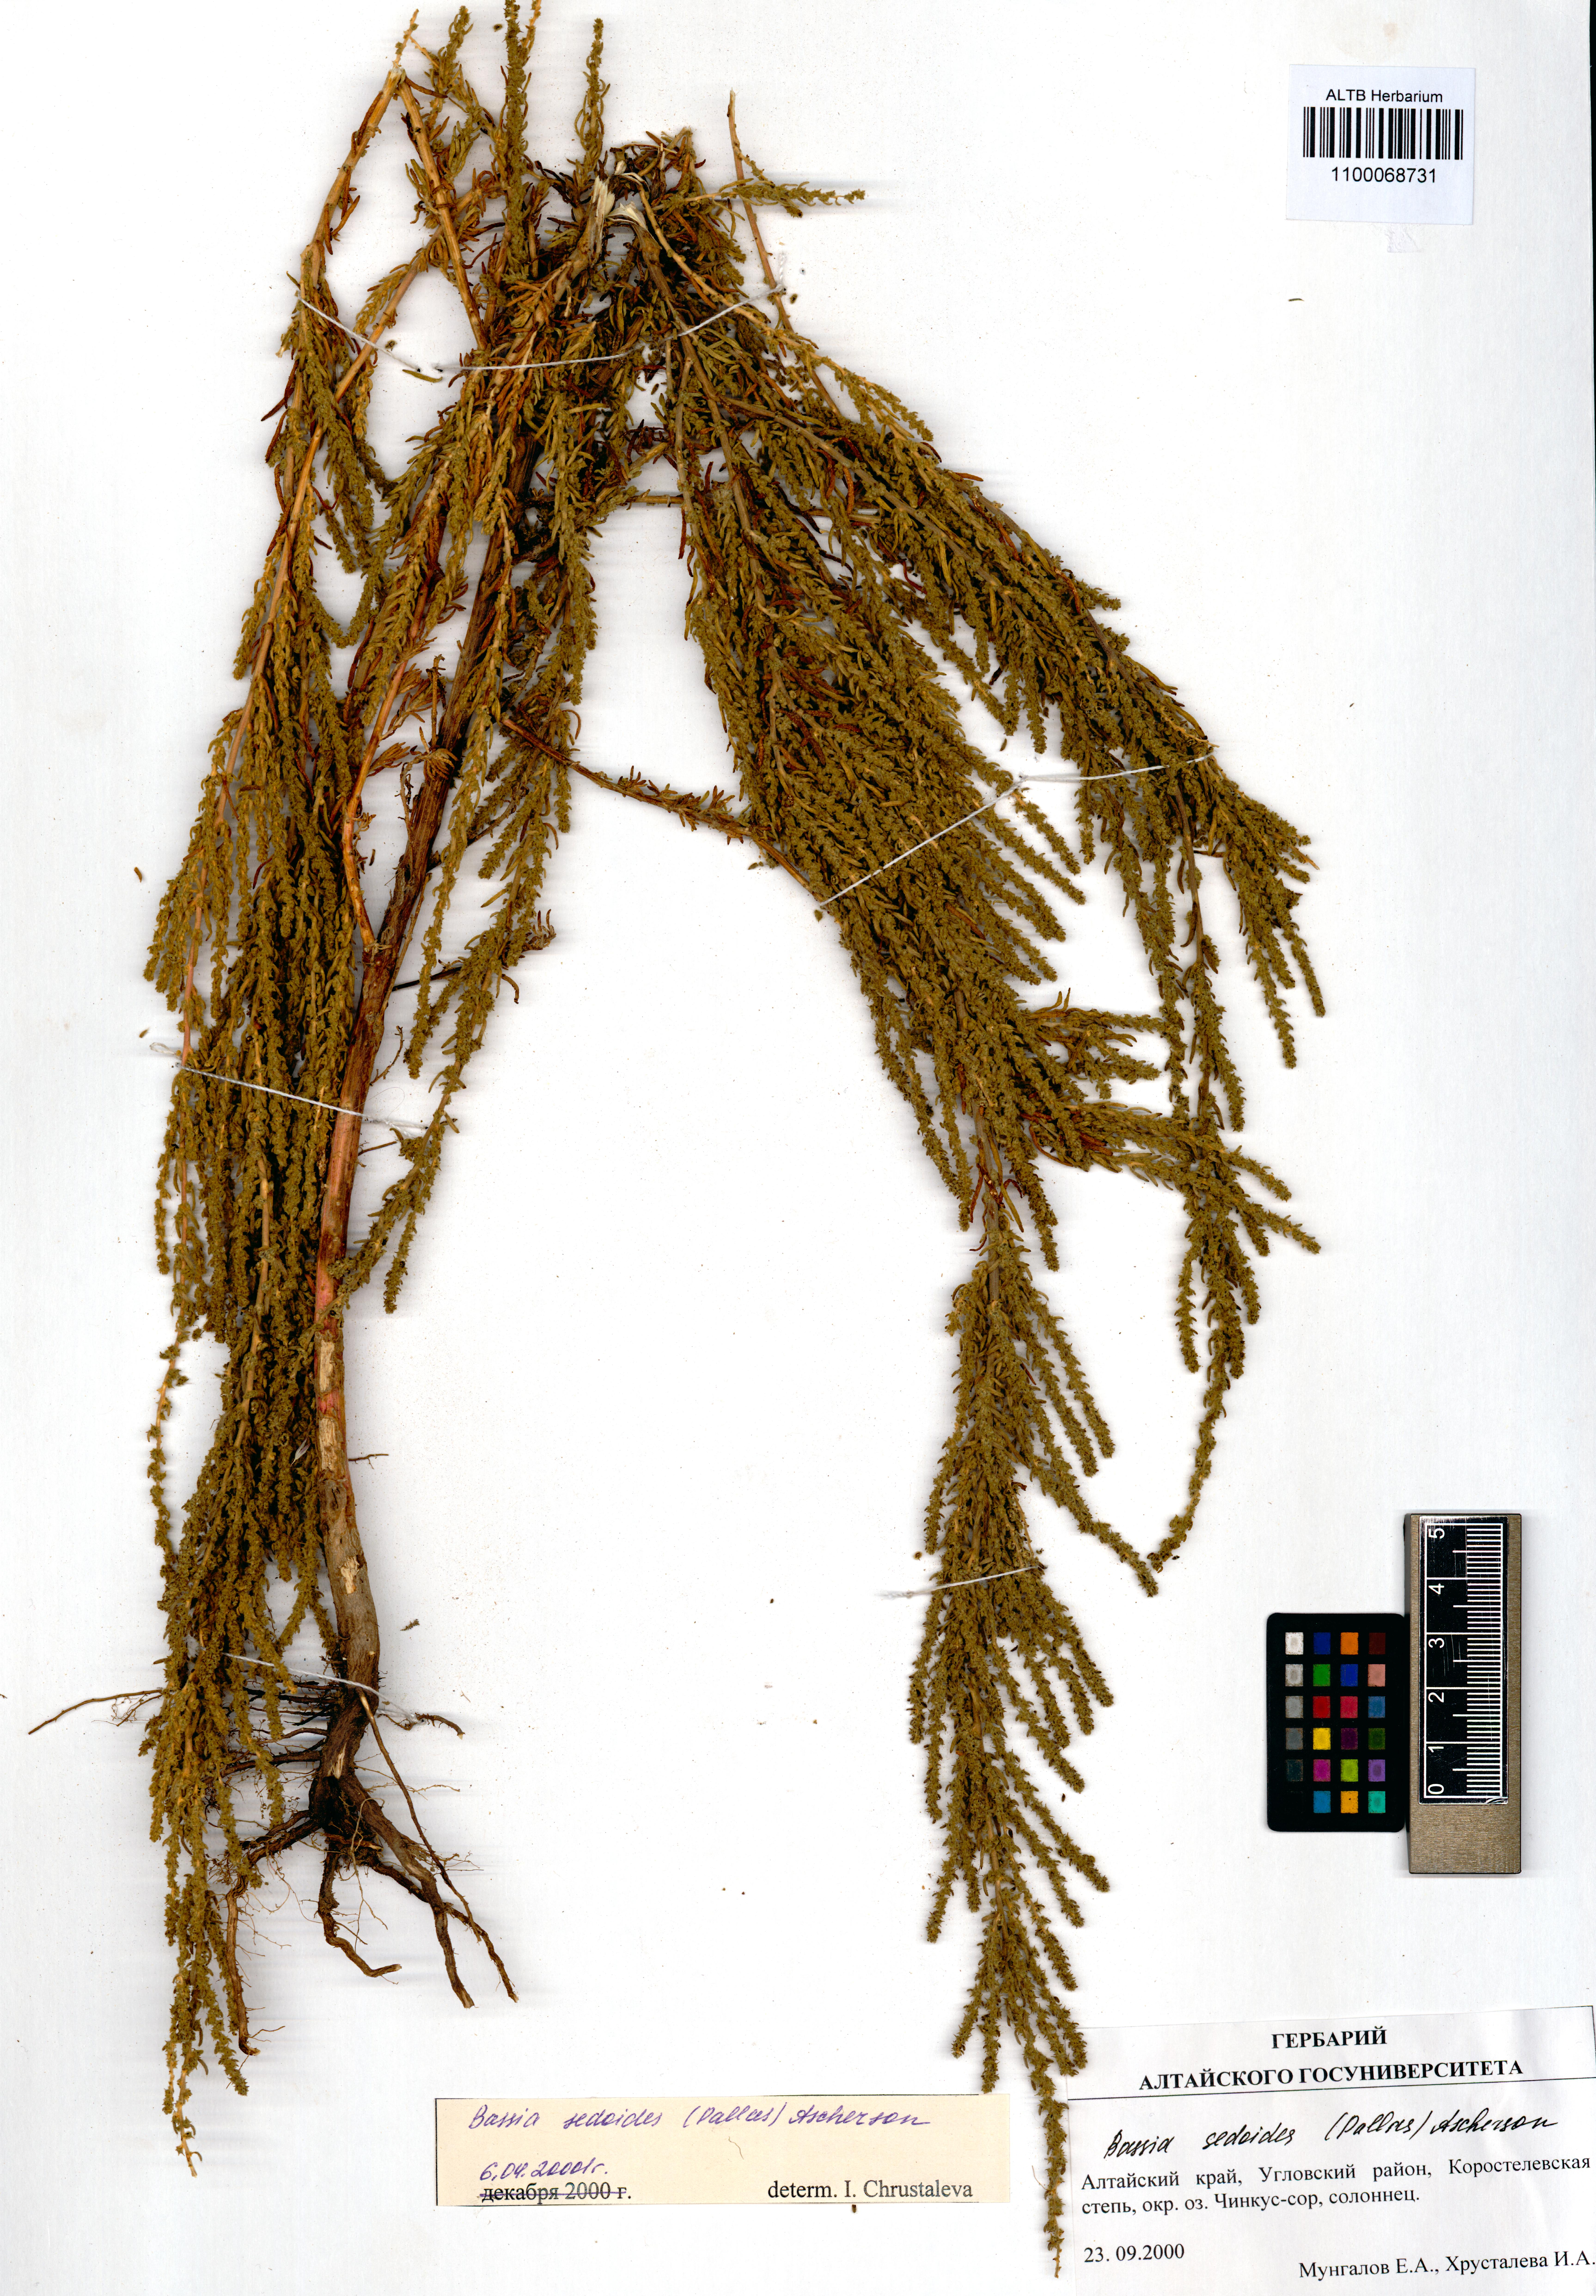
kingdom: Plantae
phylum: Tracheophyta
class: Magnoliopsida
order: Caryophyllales
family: Amaranthaceae
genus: Sedobassia
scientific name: Sedobassia sedoides
